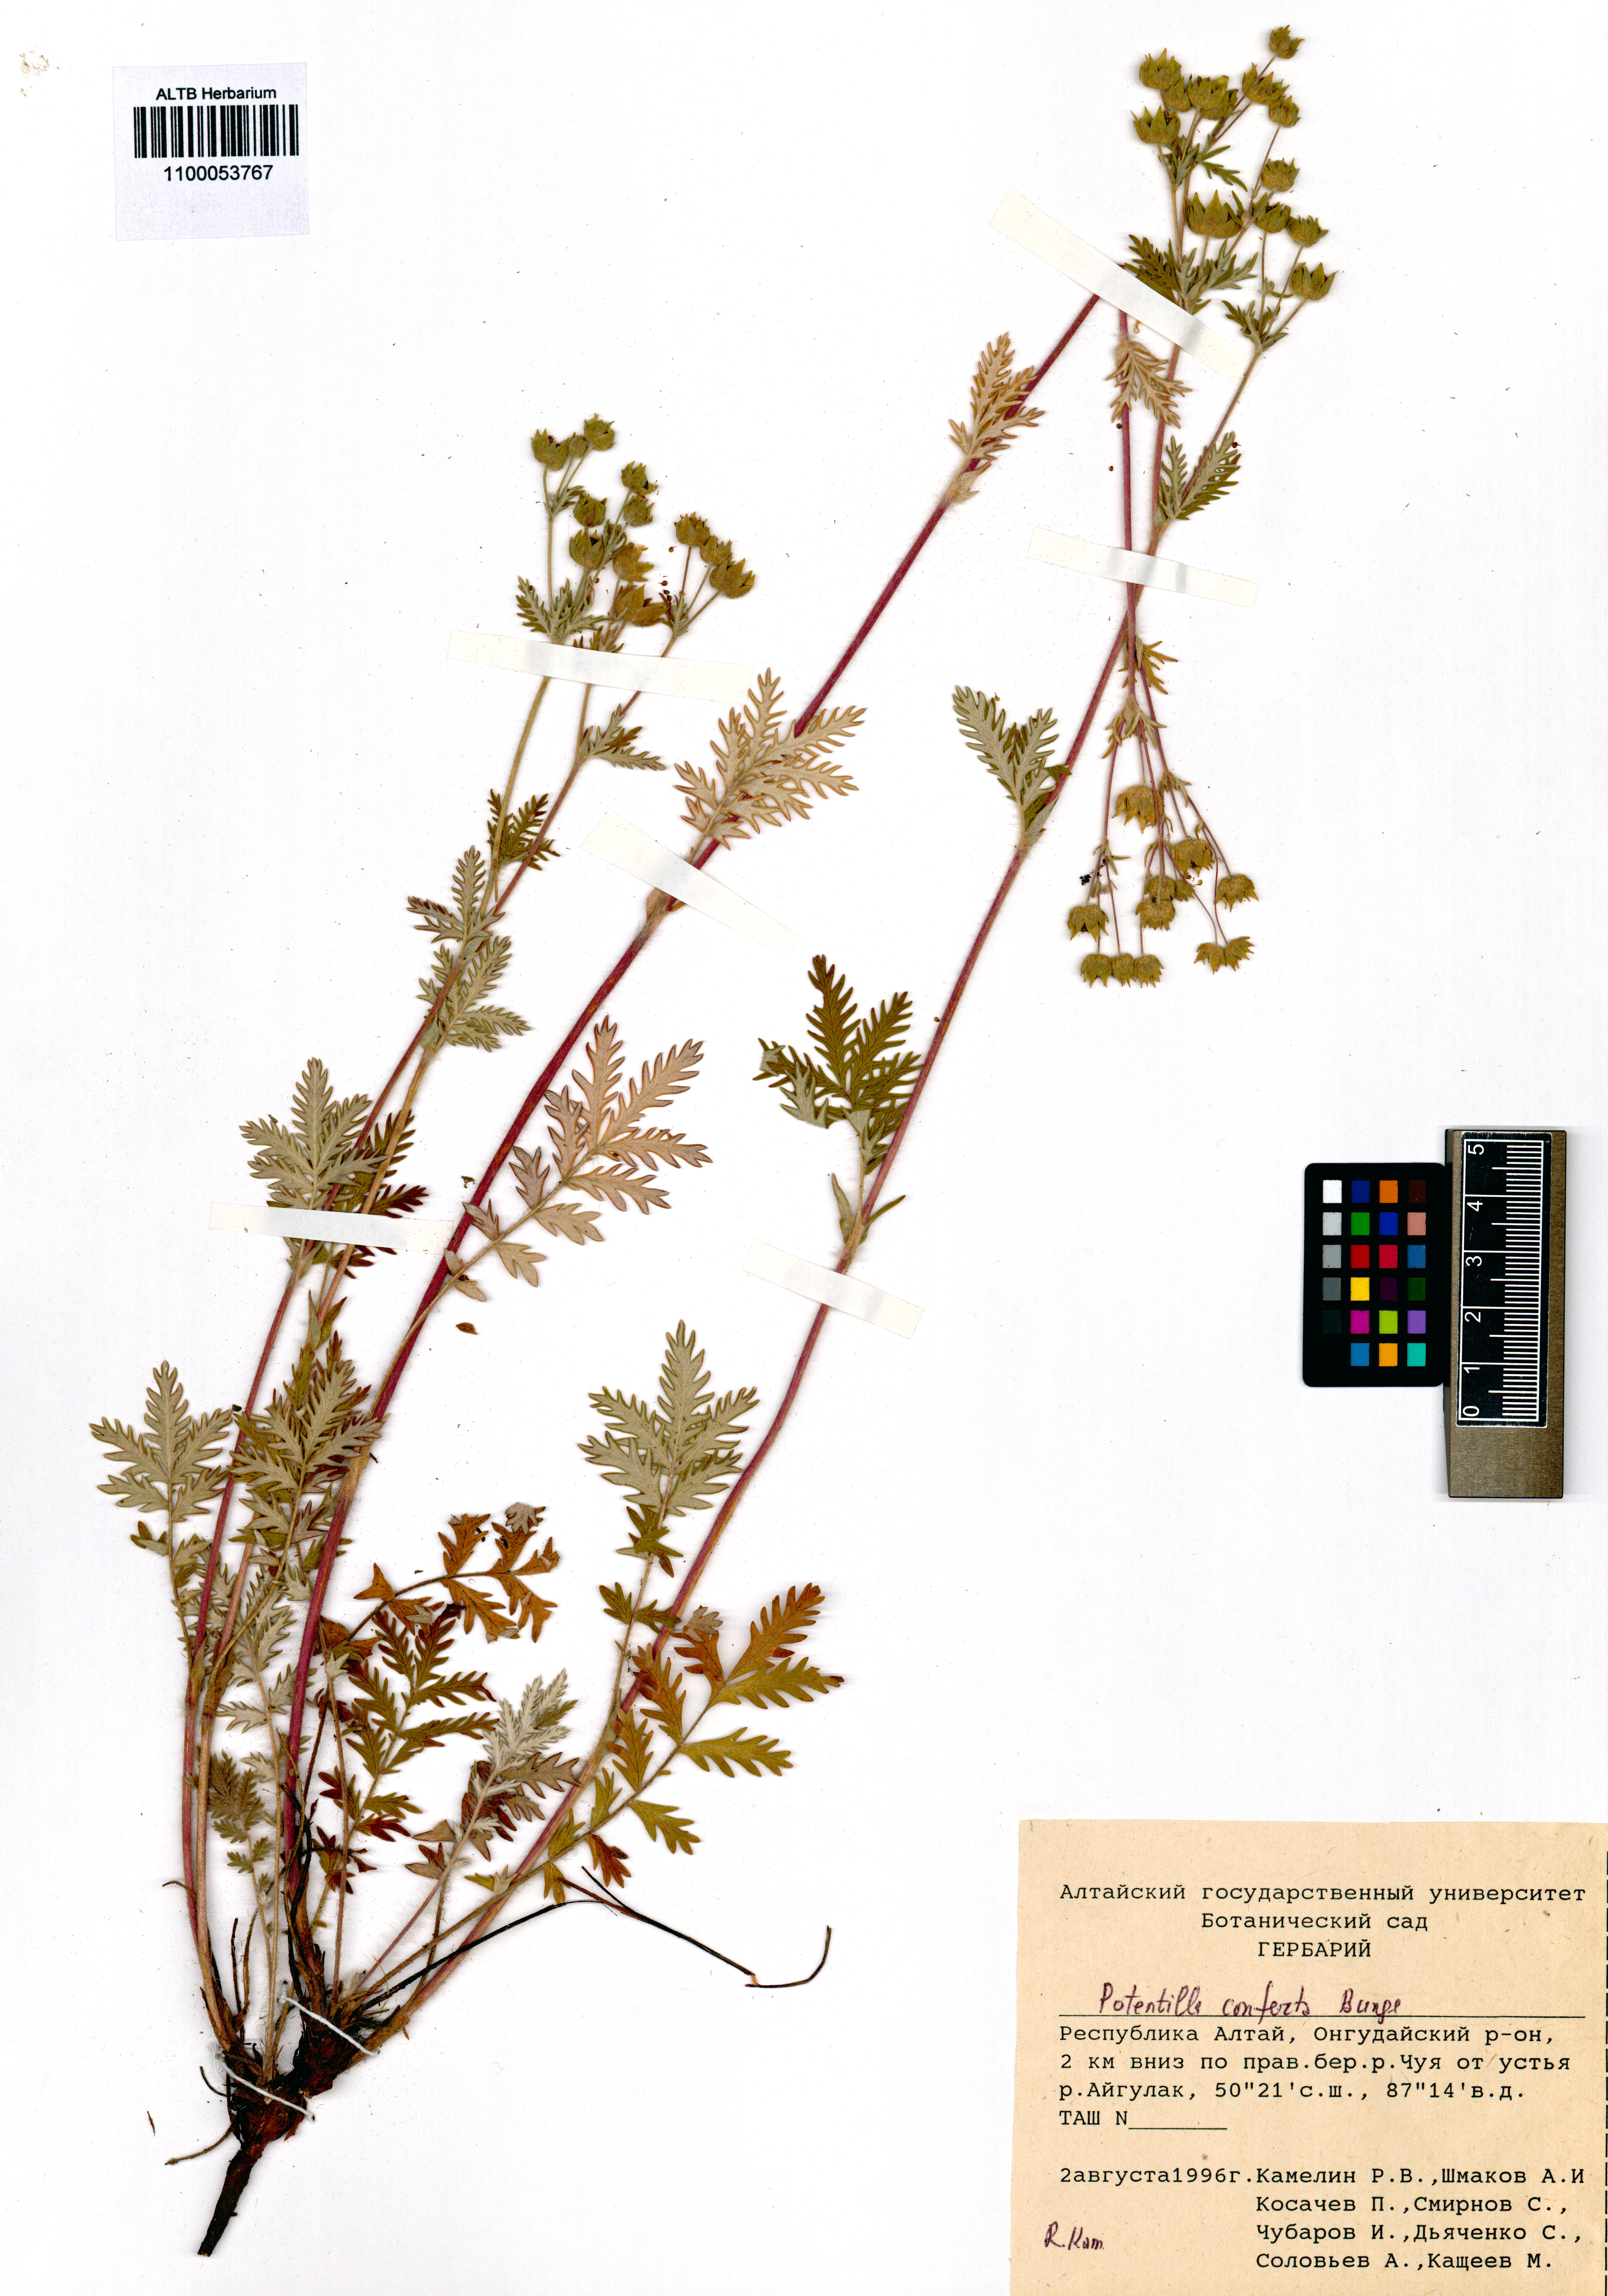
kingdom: Plantae
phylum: Tracheophyta
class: Magnoliopsida
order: Rosales
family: Rosaceae
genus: Potentilla
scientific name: Potentilla conferta
